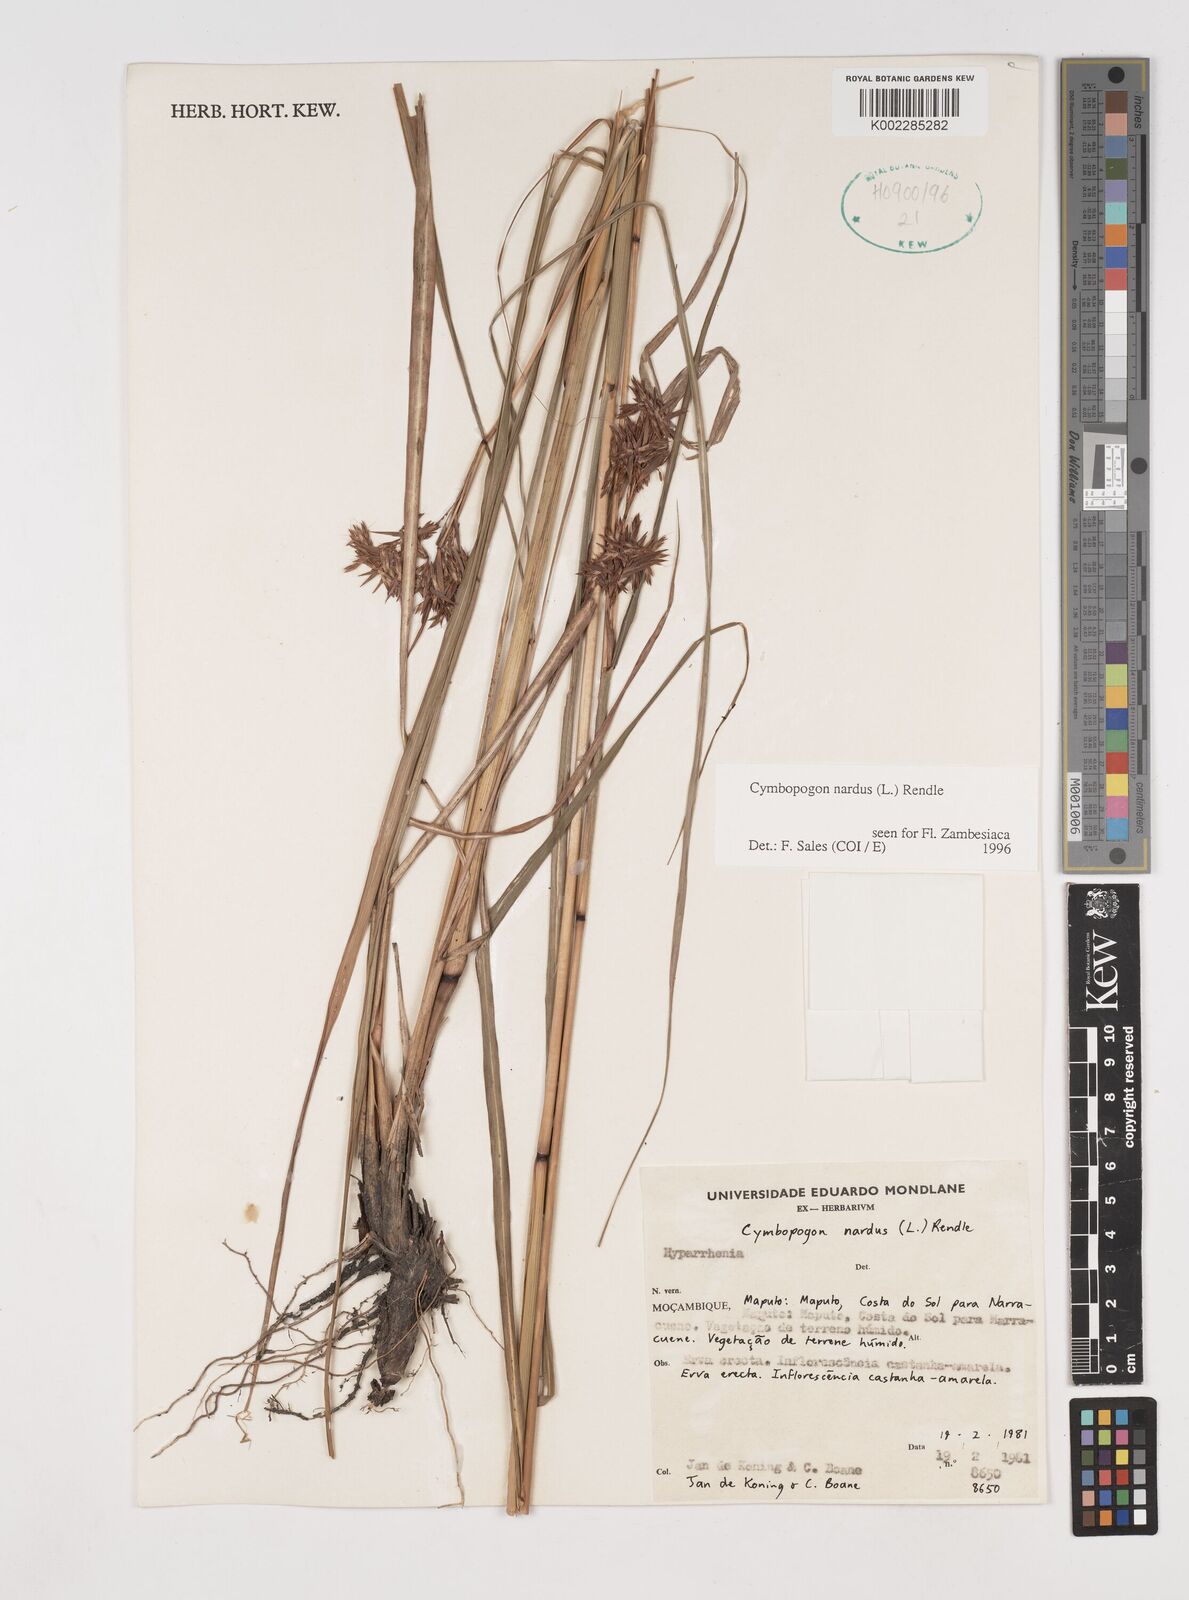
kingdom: Plantae
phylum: Tracheophyta
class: Liliopsida
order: Poales
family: Poaceae
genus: Cymbopogon
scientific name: Cymbopogon nardus
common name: Giant turpentine grass
